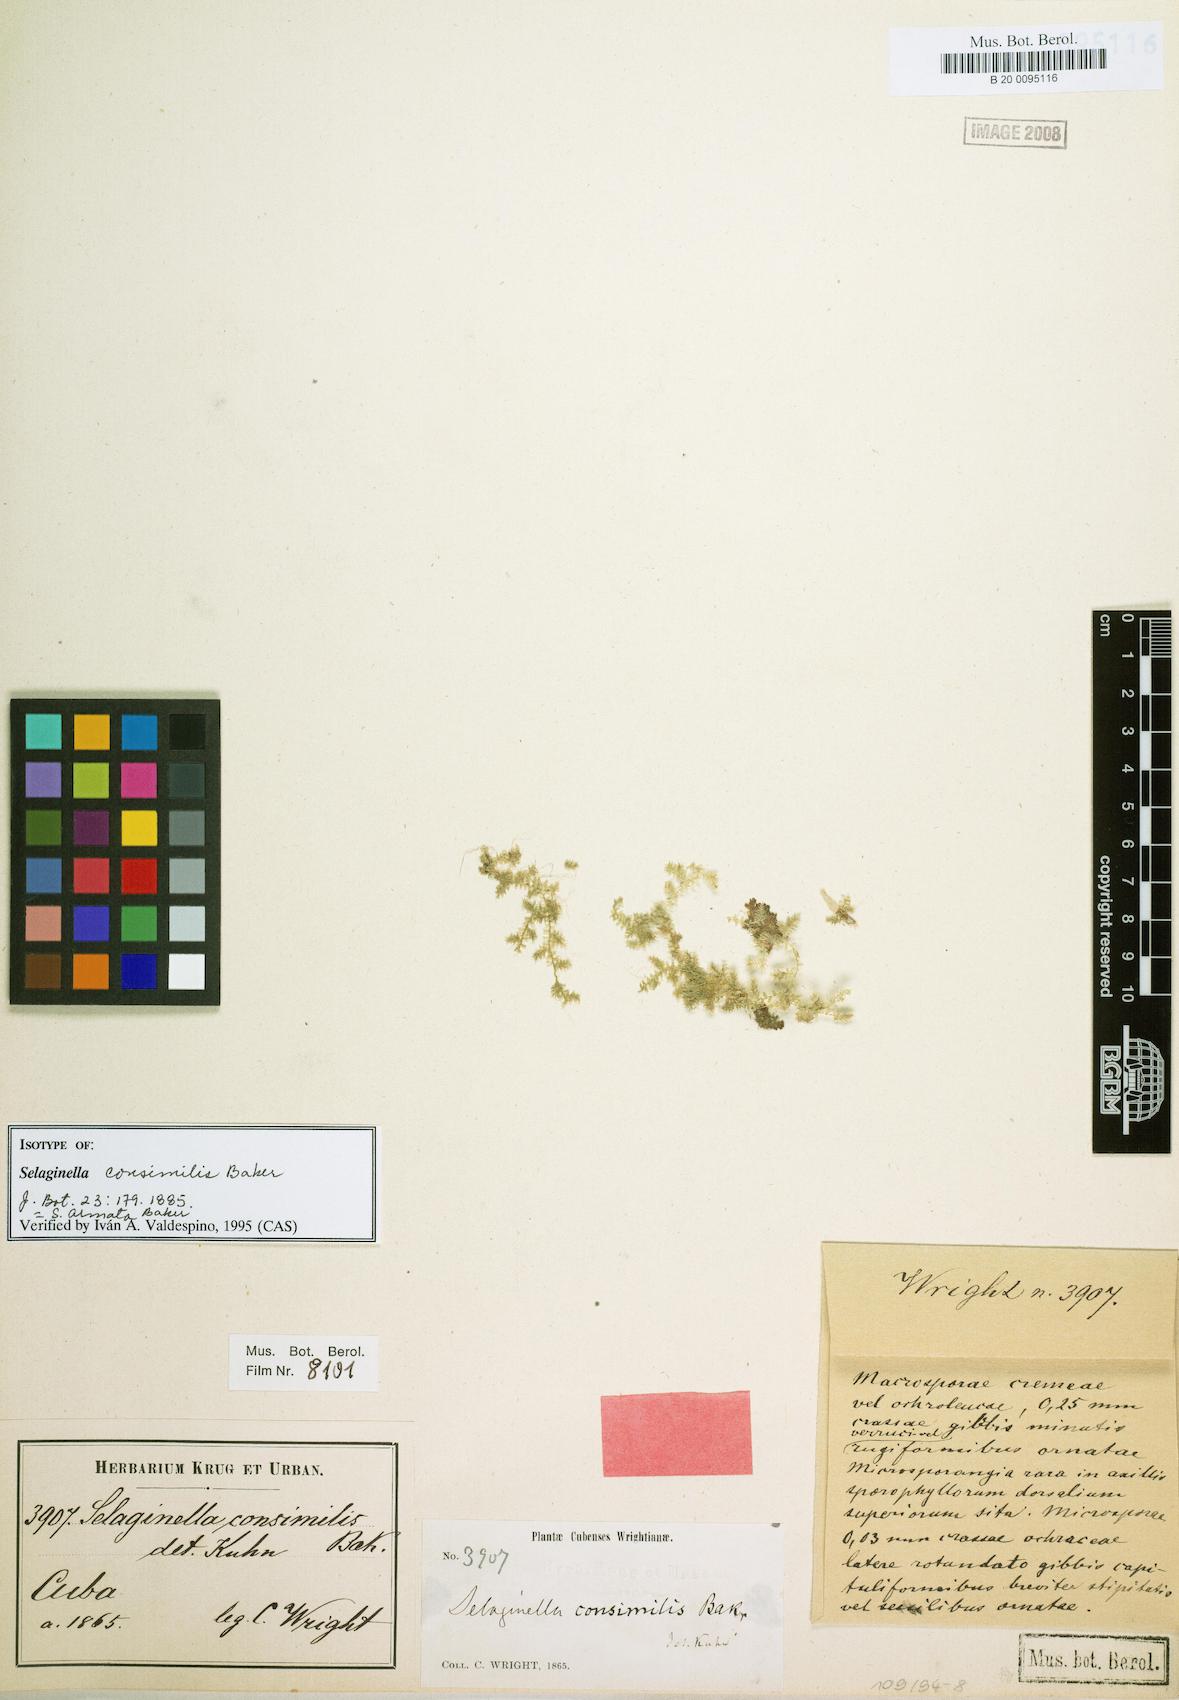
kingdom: Plantae
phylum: Tracheophyta
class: Lycopodiopsida
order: Selaginellales
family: Selaginellaceae
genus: Selaginella
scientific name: Selaginella armata
